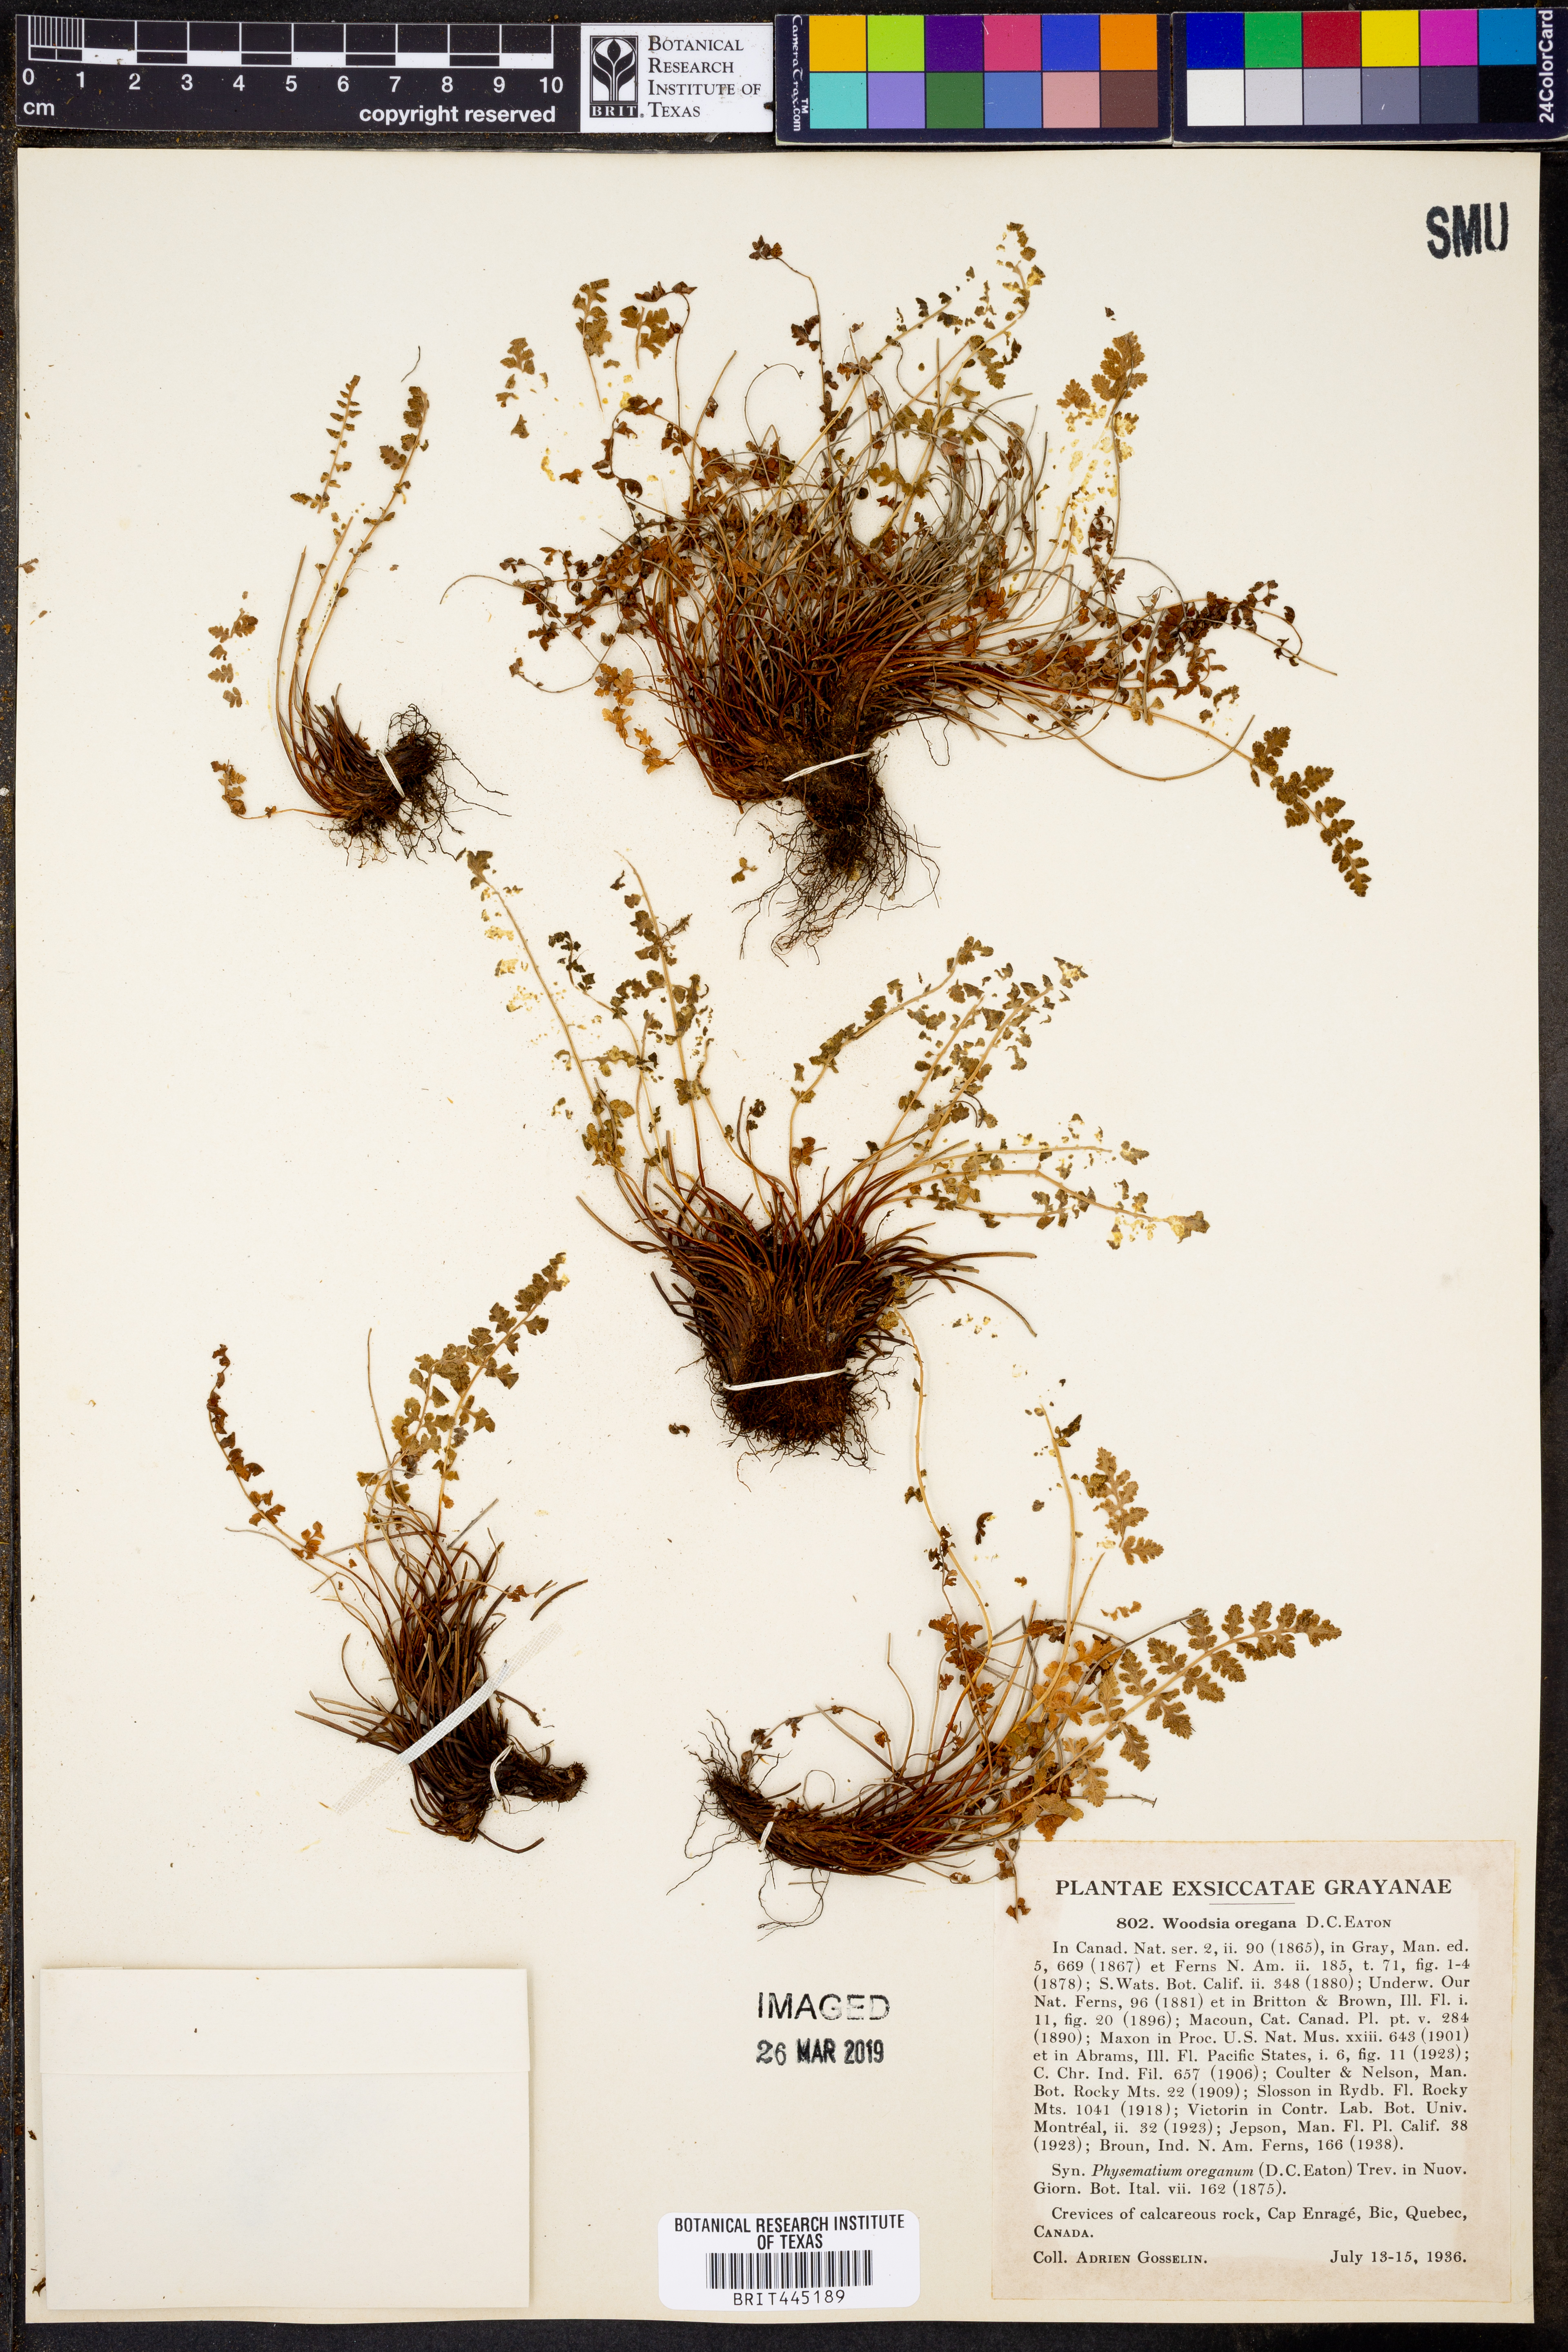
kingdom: Plantae
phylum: Tracheophyta
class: Polypodiopsida
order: Polypodiales
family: Woodsiaceae
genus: Physematium
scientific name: Physematium oreganum
